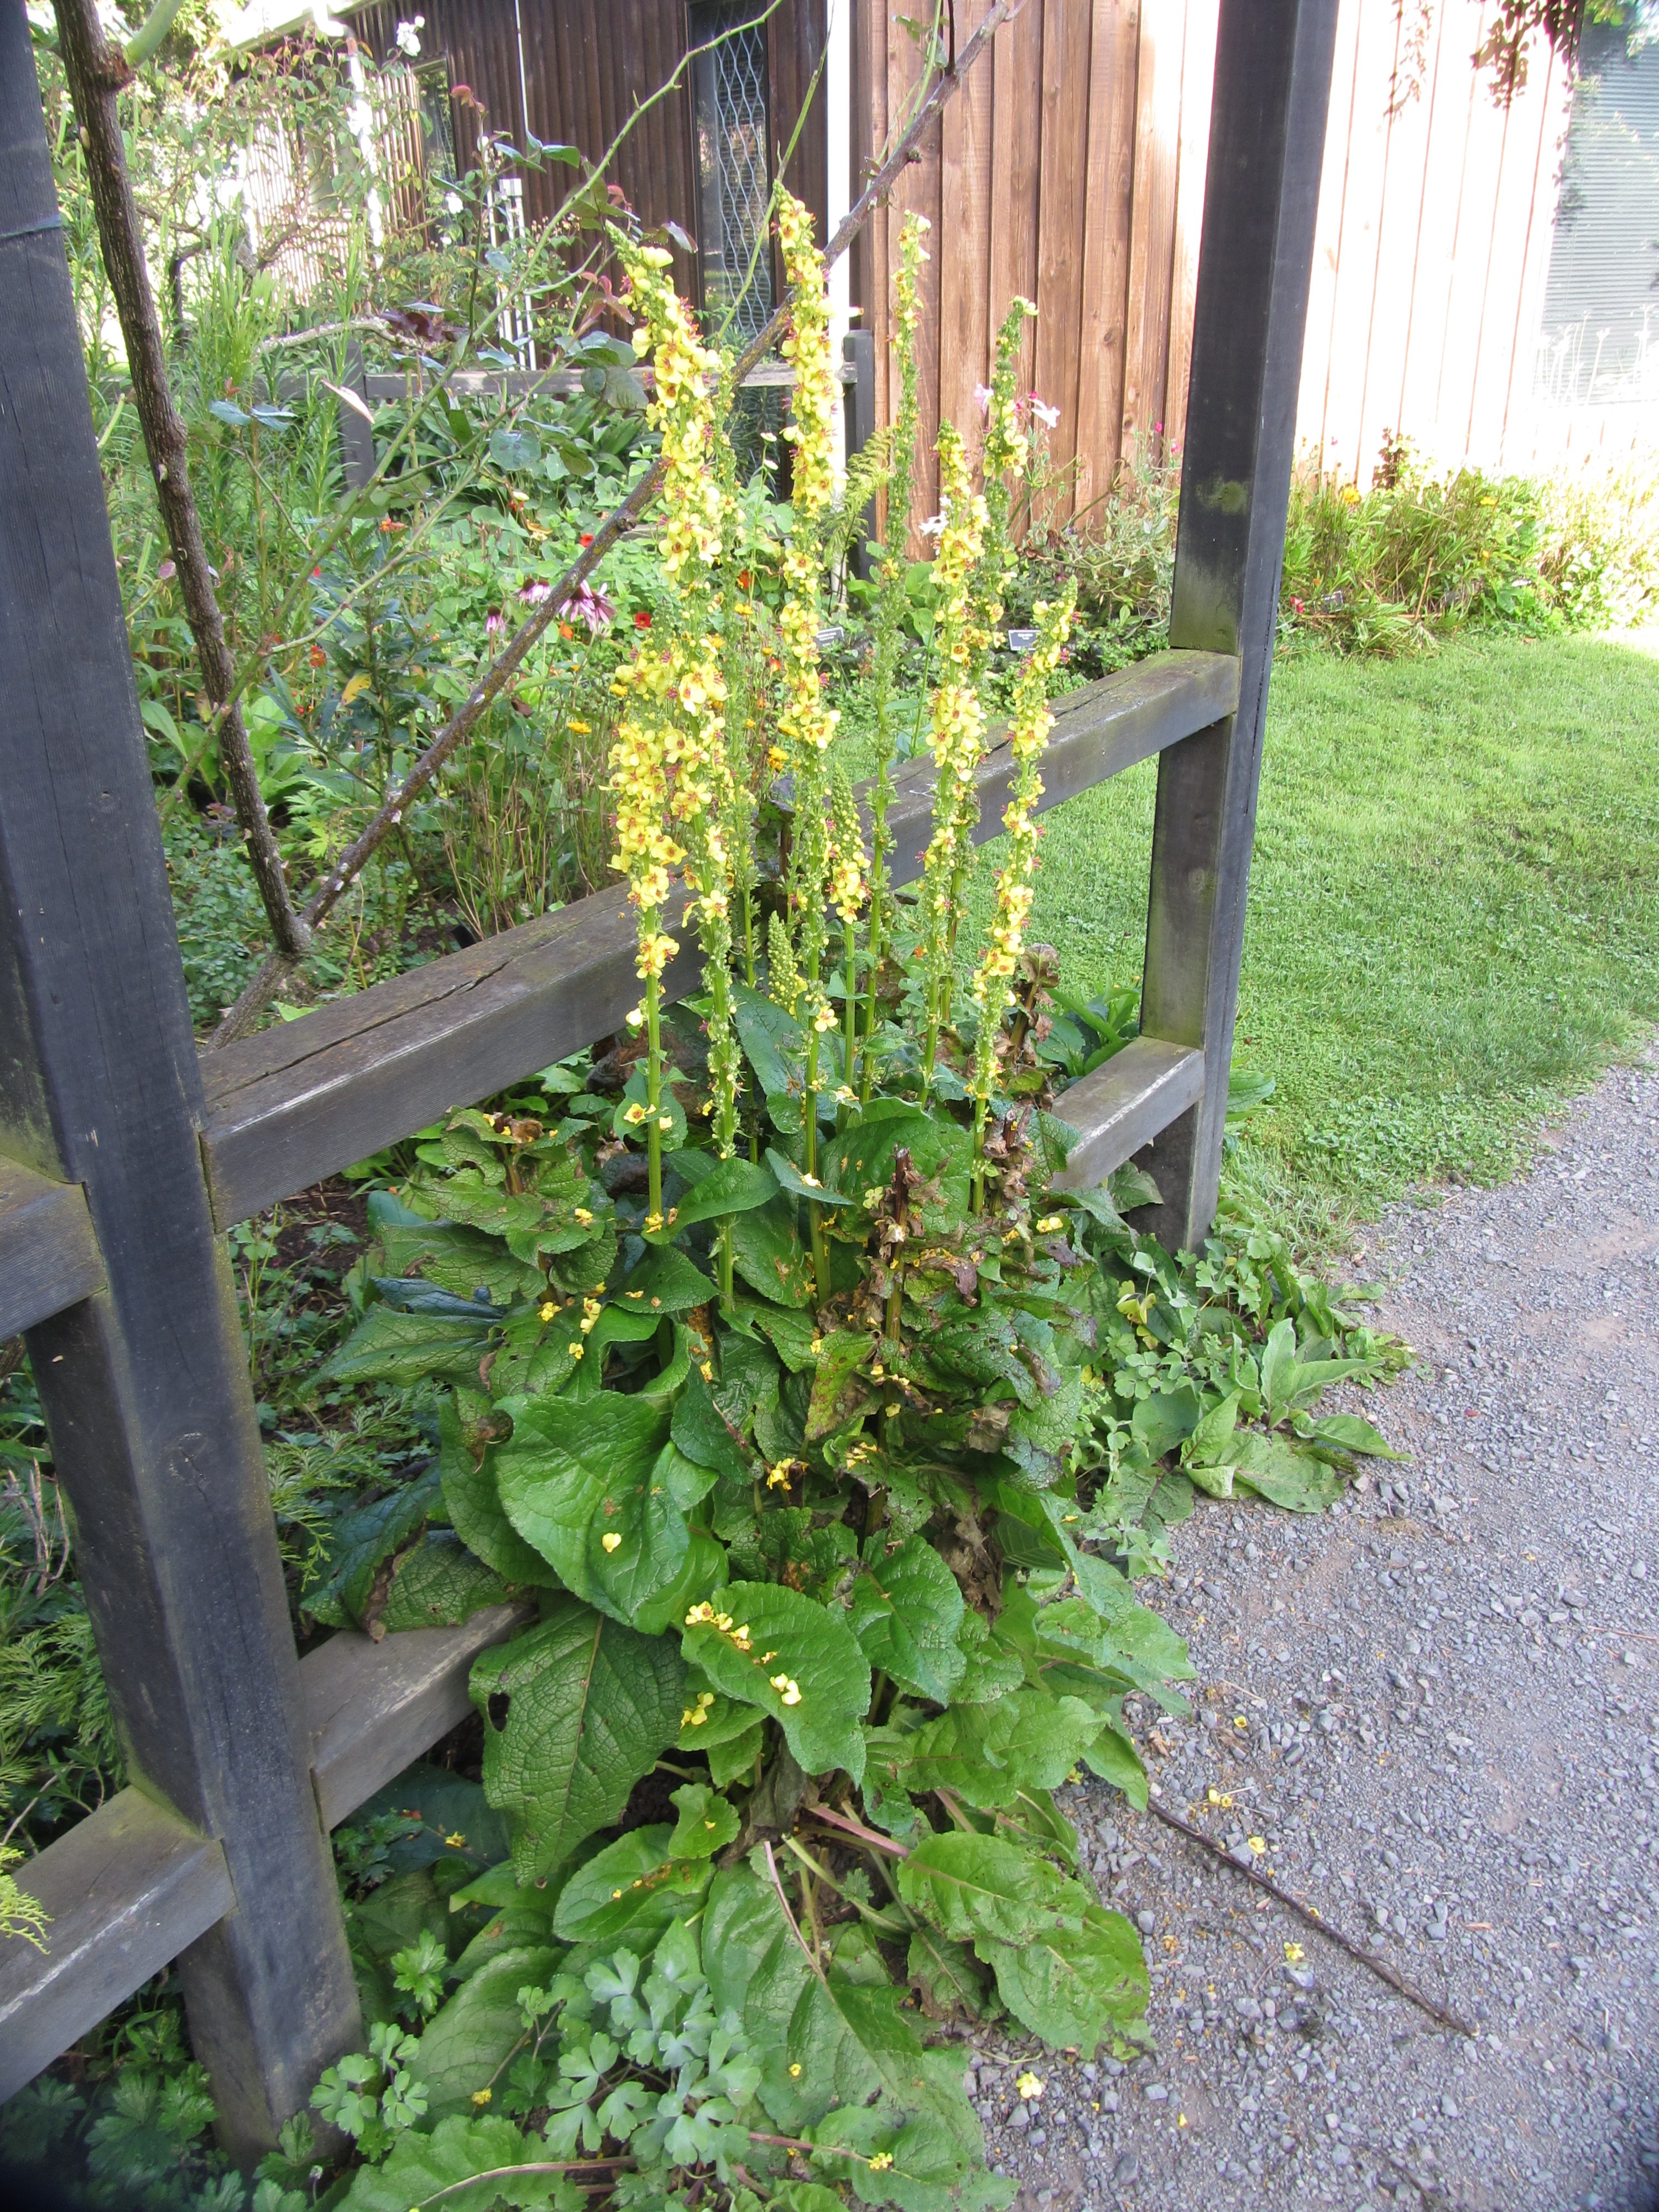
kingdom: Plantae
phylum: Tracheophyta
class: Magnoliopsida
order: Lamiales
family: Scrophulariaceae
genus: Verbascum
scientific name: Verbascum chaixii
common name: Nettle-leaved mullein
